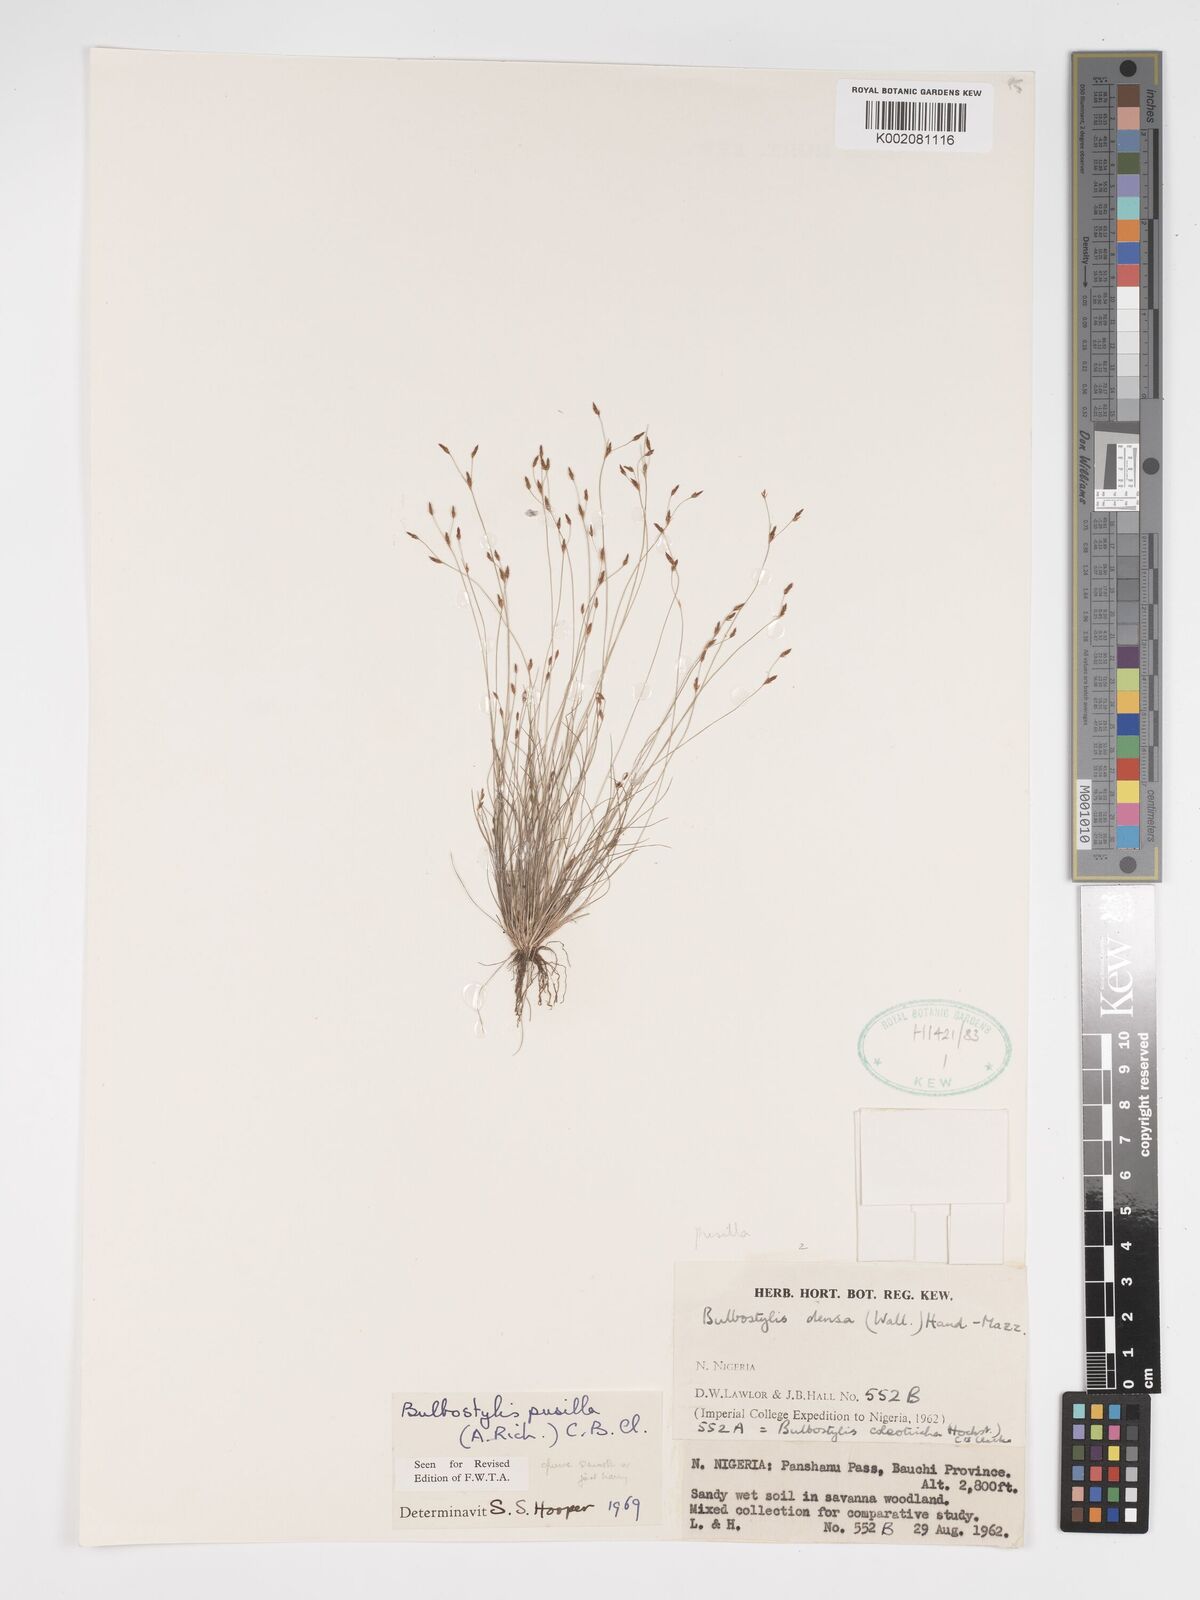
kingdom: Plantae
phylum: Tracheophyta
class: Liliopsida
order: Poales
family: Cyperaceae
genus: Bulbostylis
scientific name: Bulbostylis pusilla
